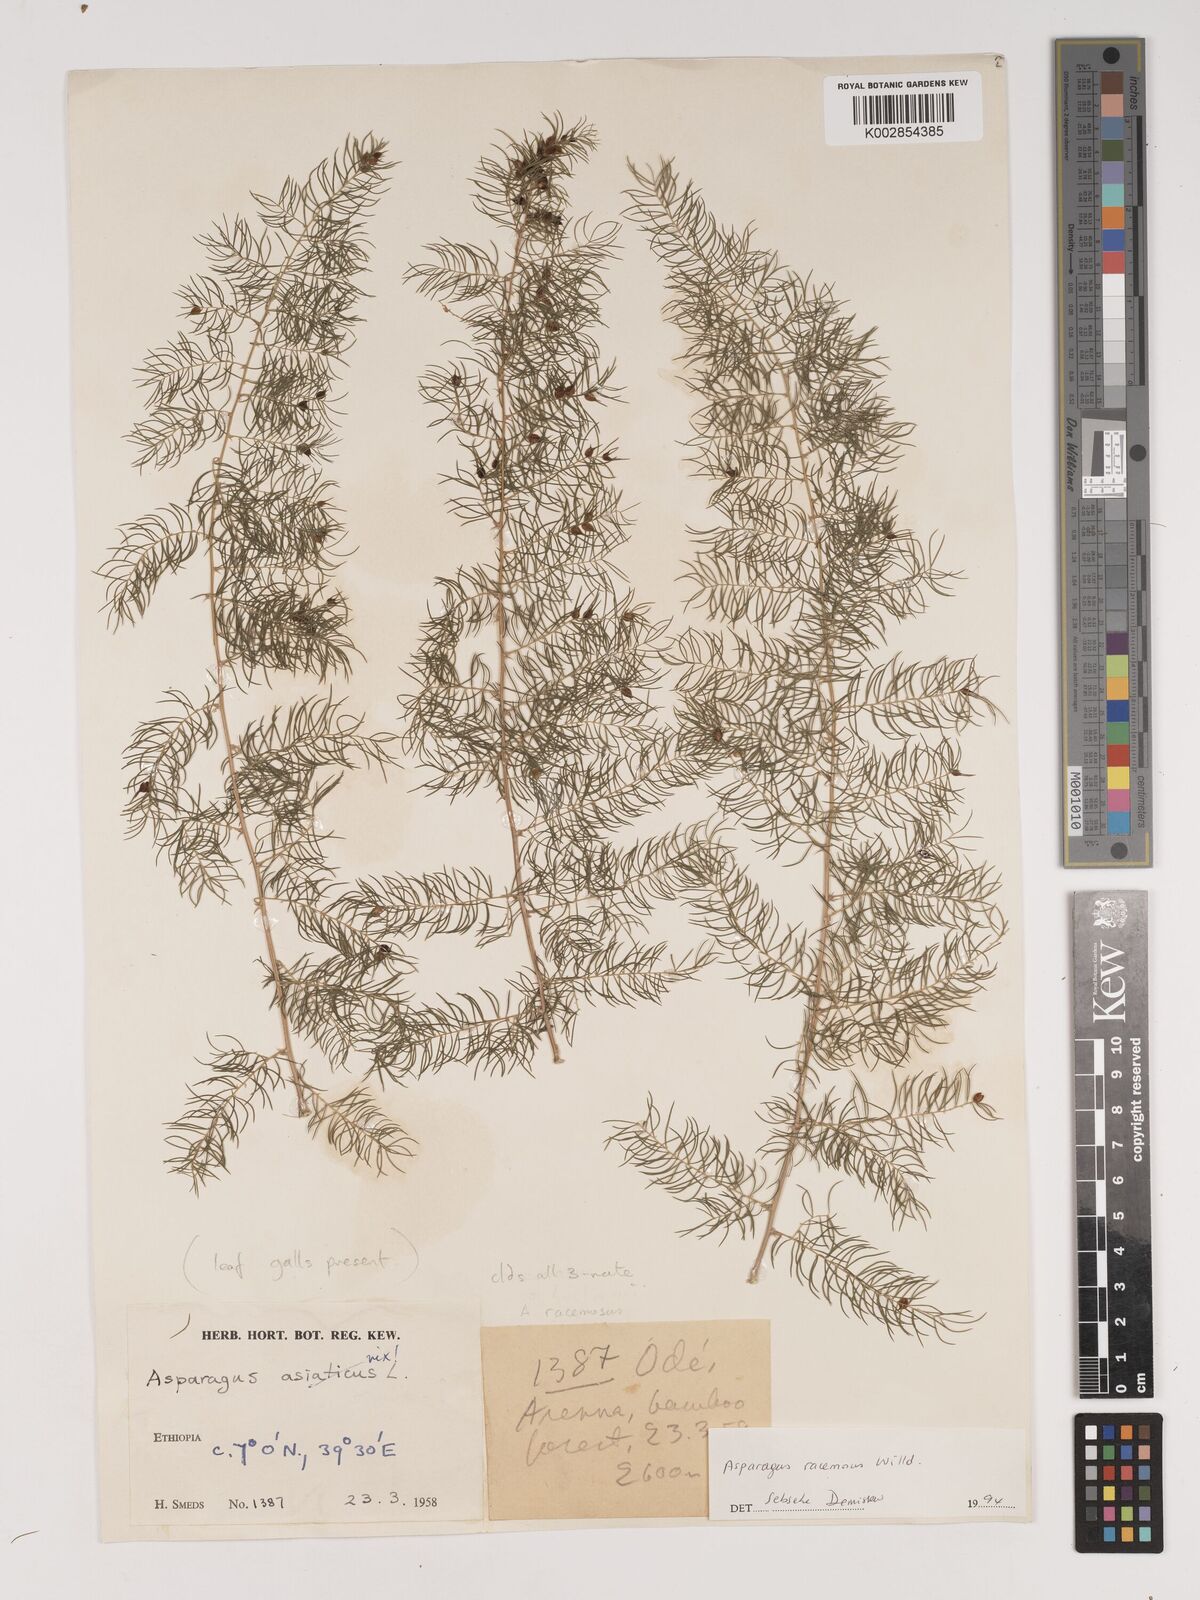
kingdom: Plantae
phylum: Tracheophyta
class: Liliopsida
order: Asparagales
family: Asparagaceae
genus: Asparagus
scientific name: Asparagus racemosus
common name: Asparagus-fern
